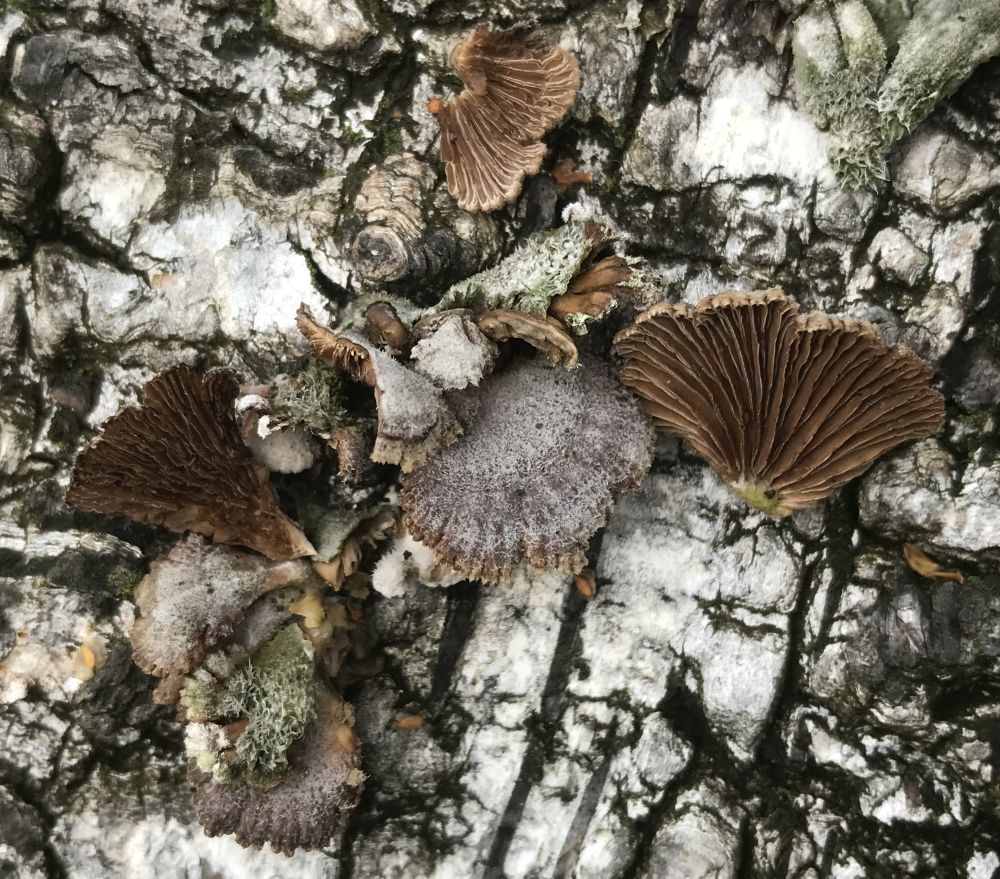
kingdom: Fungi
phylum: Basidiomycota
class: Agaricomycetes
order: Agaricales
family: Schizophyllaceae
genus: Schizophyllum
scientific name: Schizophyllum commune
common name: kløvblad
